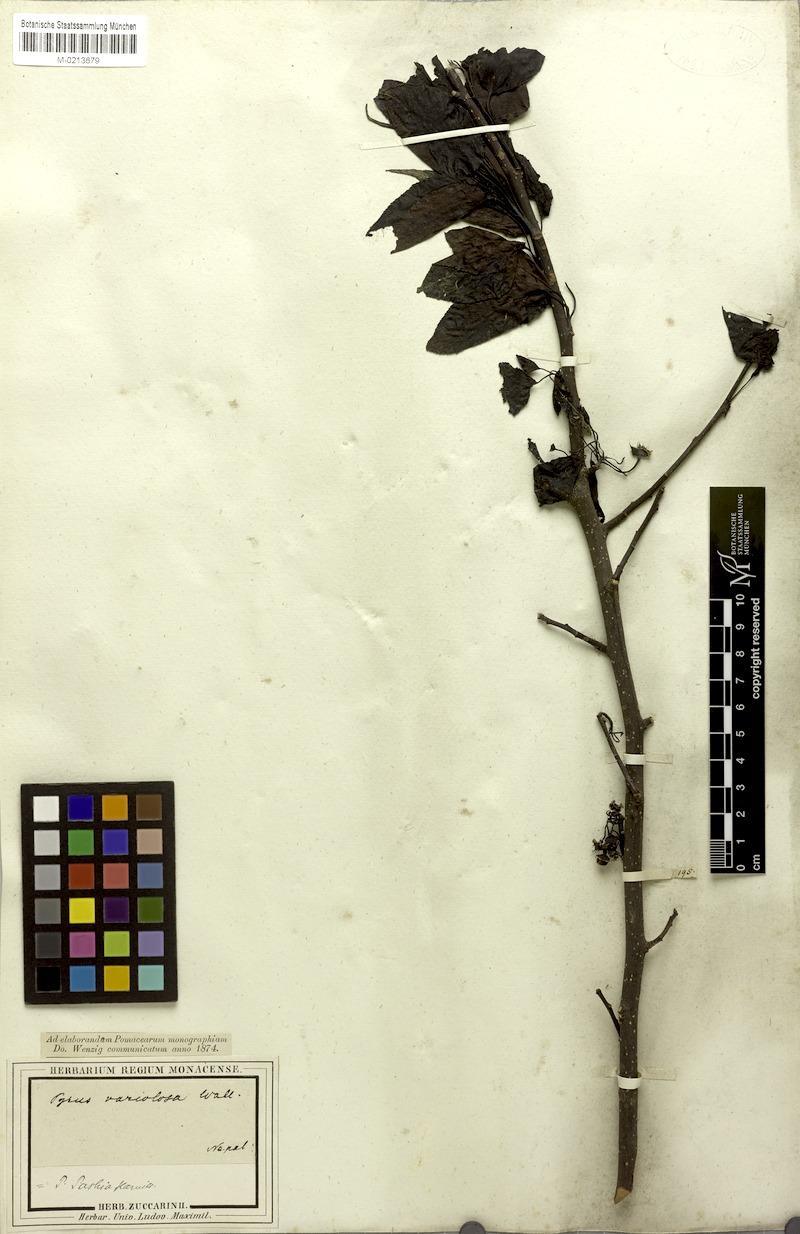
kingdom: Plantae
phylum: Tracheophyta
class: Magnoliopsida
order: Rosales
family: Rosaceae
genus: Pyrus
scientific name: Pyrus pashia
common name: Himalayan pear
